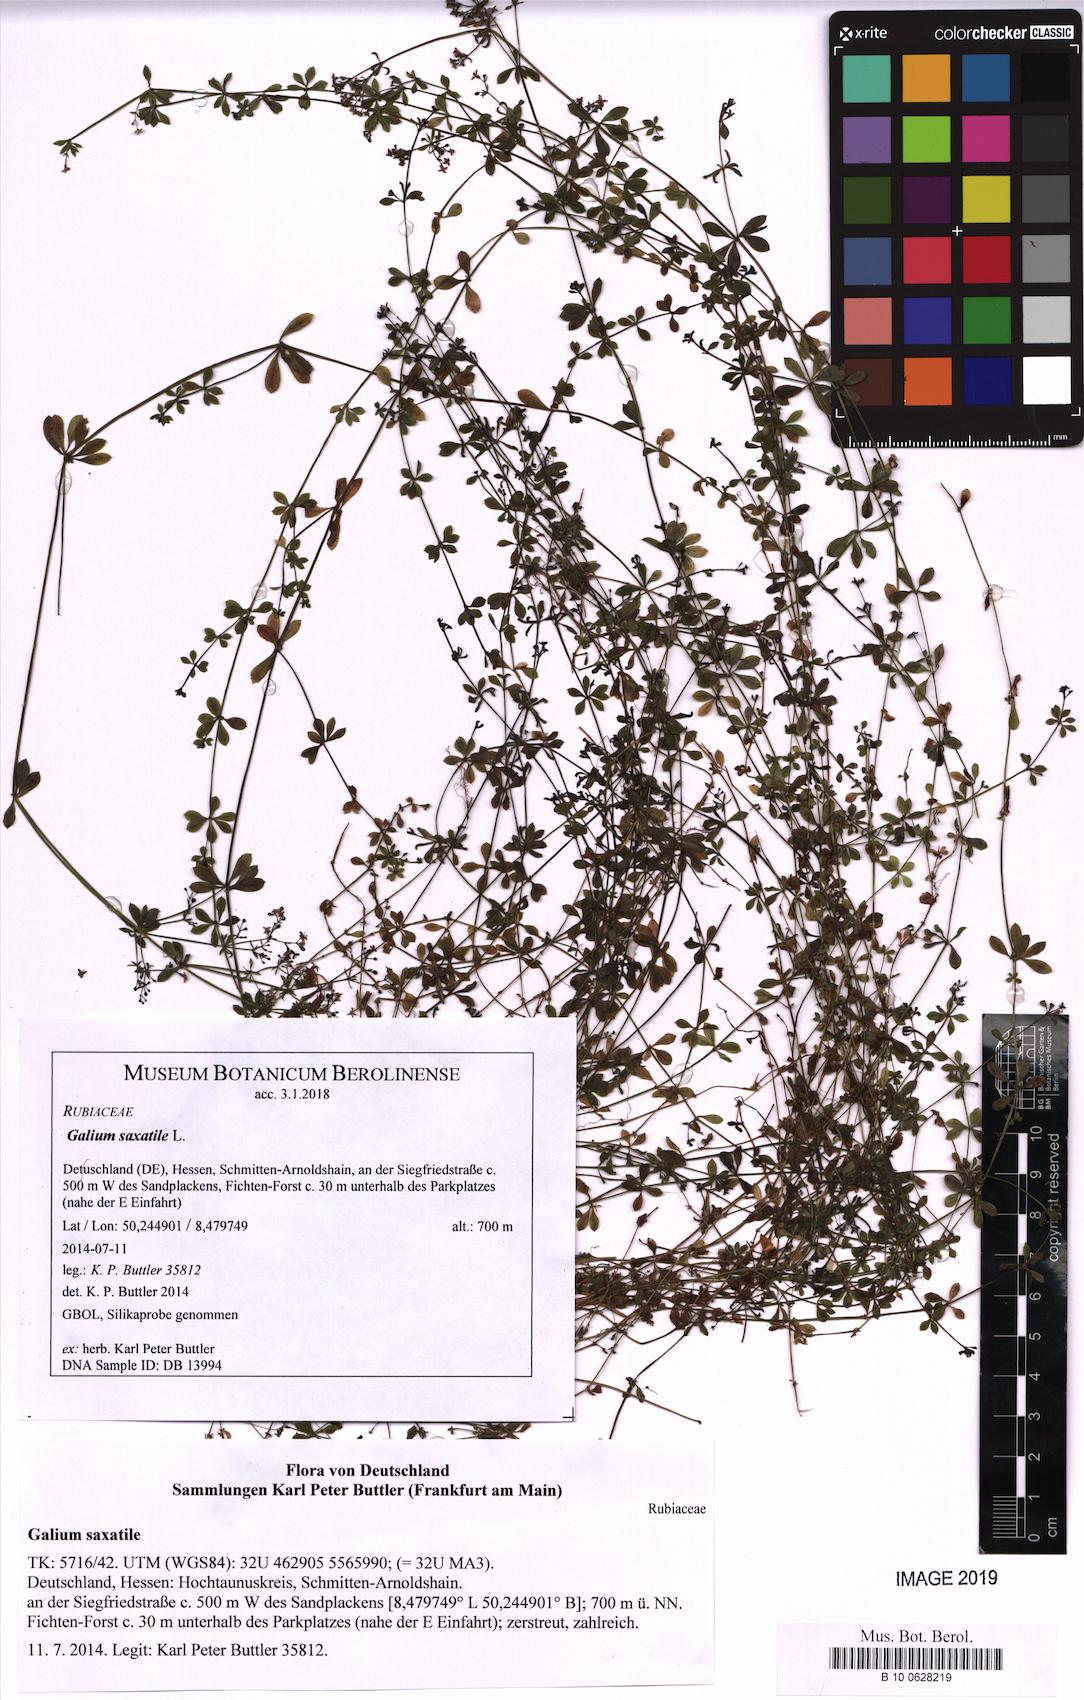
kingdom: Plantae
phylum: Tracheophyta
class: Magnoliopsida
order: Gentianales
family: Rubiaceae
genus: Galium
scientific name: Galium saxatile
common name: Heath bedstraw
